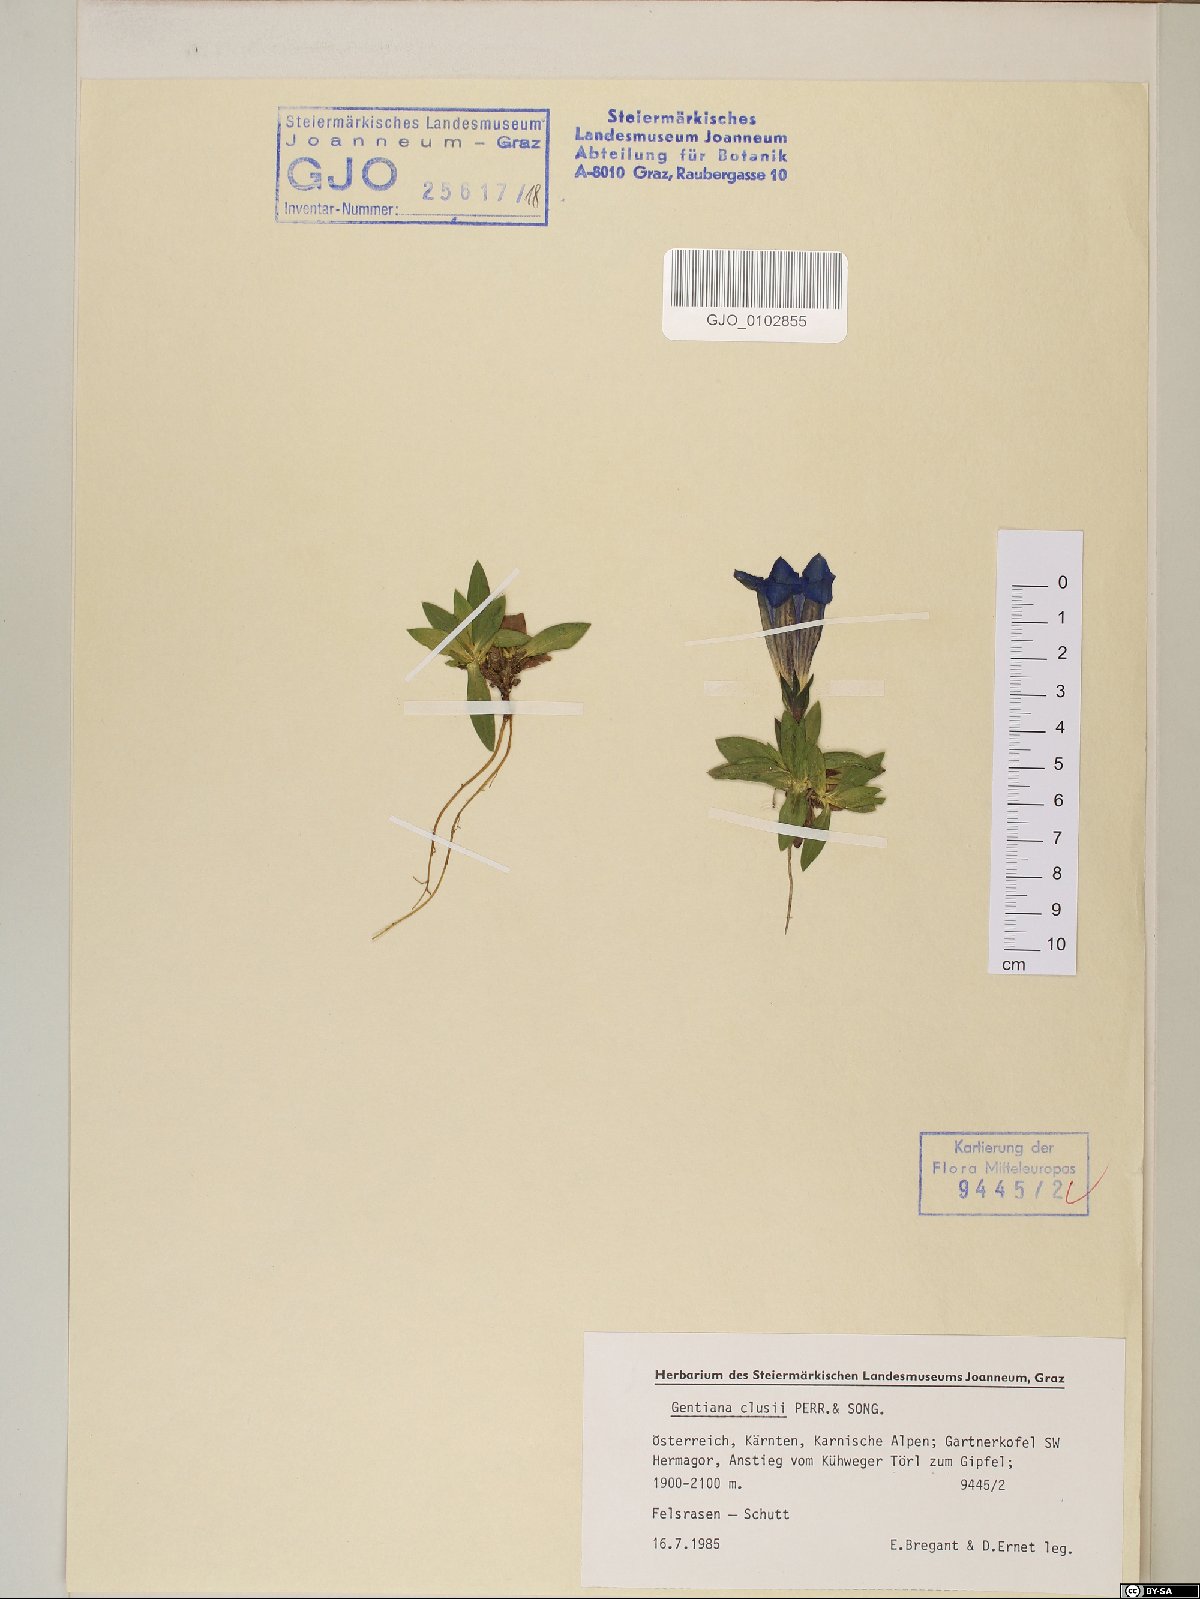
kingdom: Plantae
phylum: Tracheophyta
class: Magnoliopsida
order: Gentianales
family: Gentianaceae
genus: Gentiana
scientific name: Gentiana clusii
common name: Trumpet gentian
